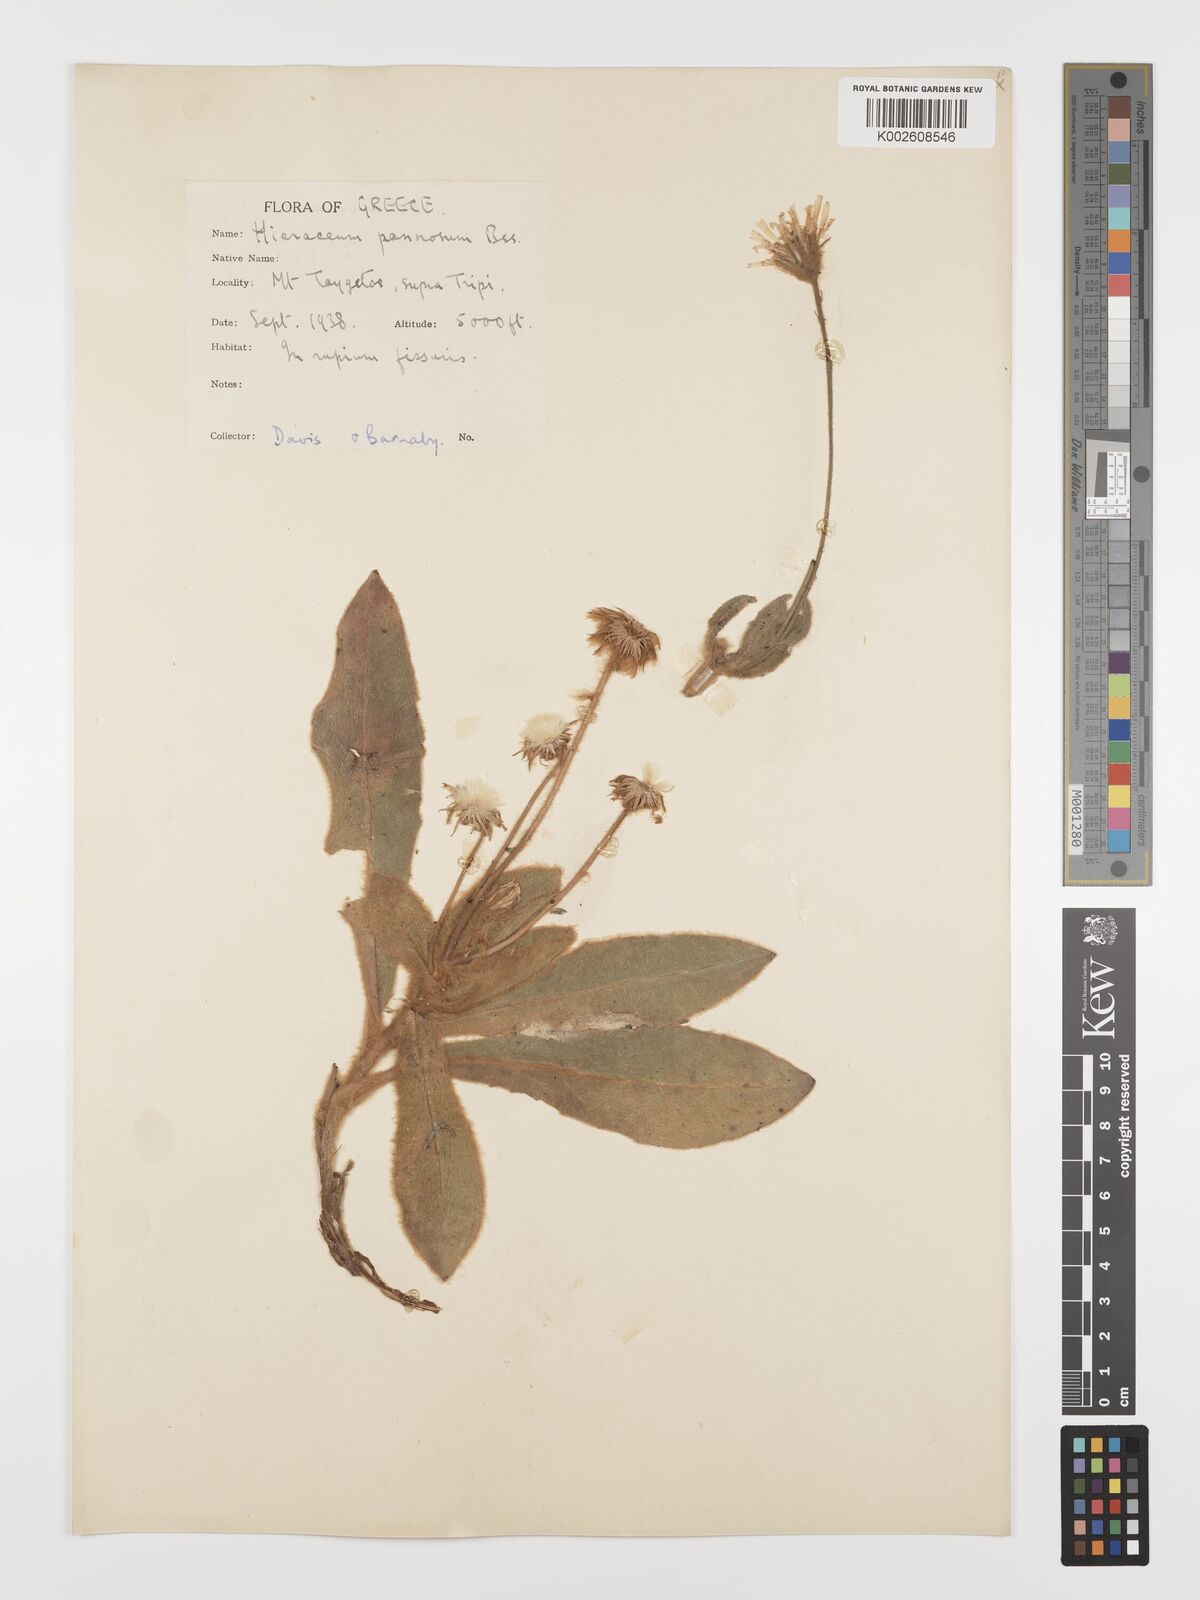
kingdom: Plantae
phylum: Tracheophyta
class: Magnoliopsida
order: Asterales
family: Asteraceae
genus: Hieracium
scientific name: Hieracium pannosum
